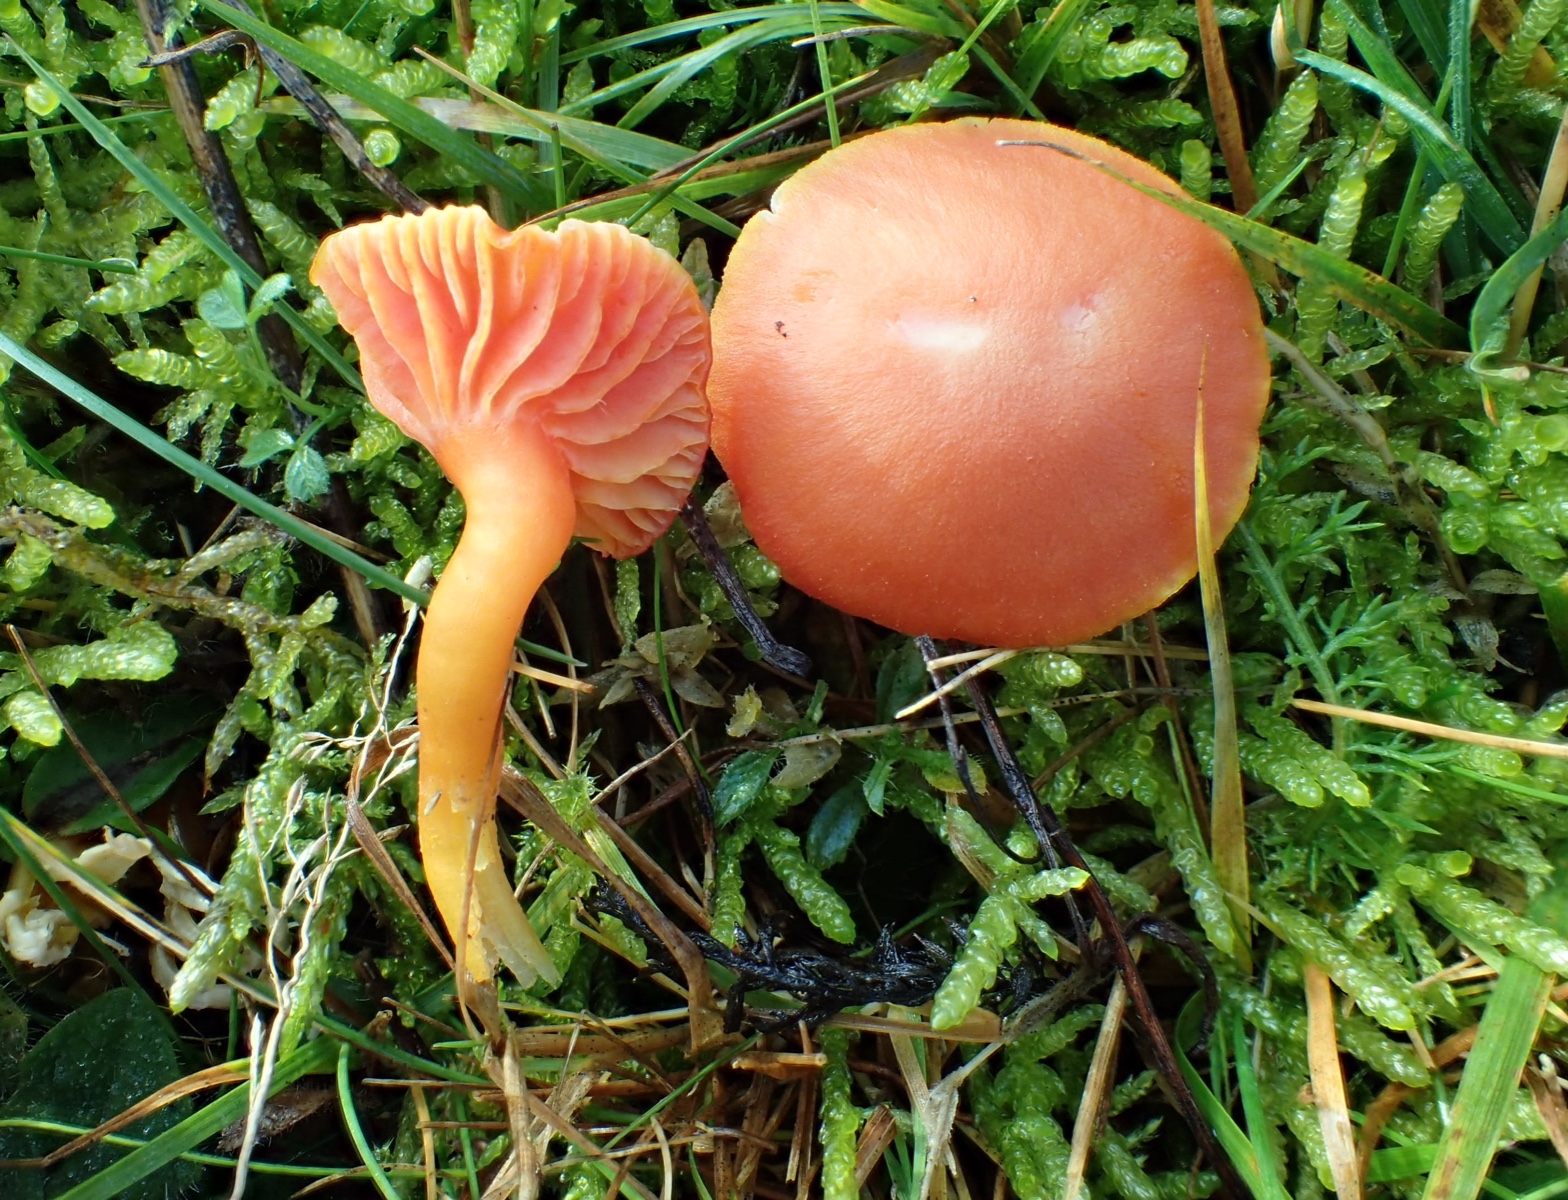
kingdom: Fungi
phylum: Basidiomycota
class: Agaricomycetes
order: Agaricales
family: Hygrophoraceae
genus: Hygrocybe
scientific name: Hygrocybe reidii
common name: honning-vokshat
